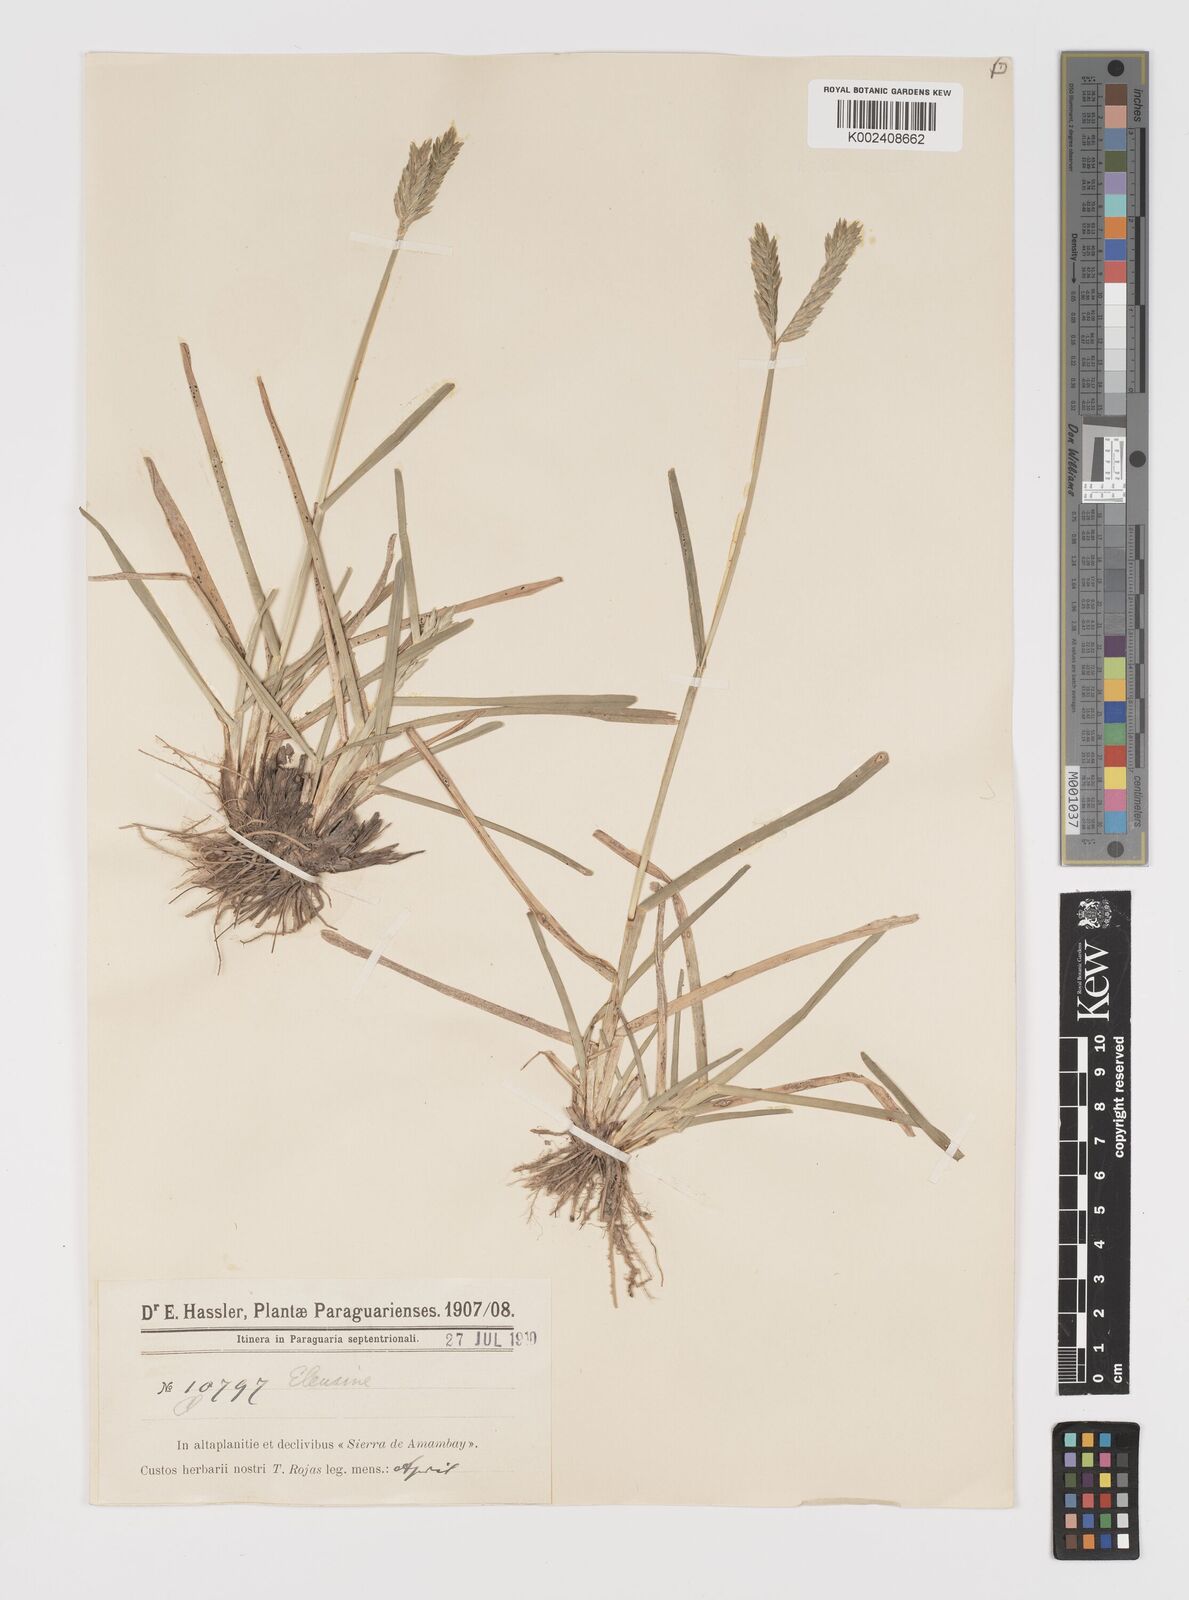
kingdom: Plantae
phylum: Tracheophyta
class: Liliopsida
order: Poales
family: Poaceae
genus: Eleusine
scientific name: Eleusine tristachya
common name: American yard-grass
